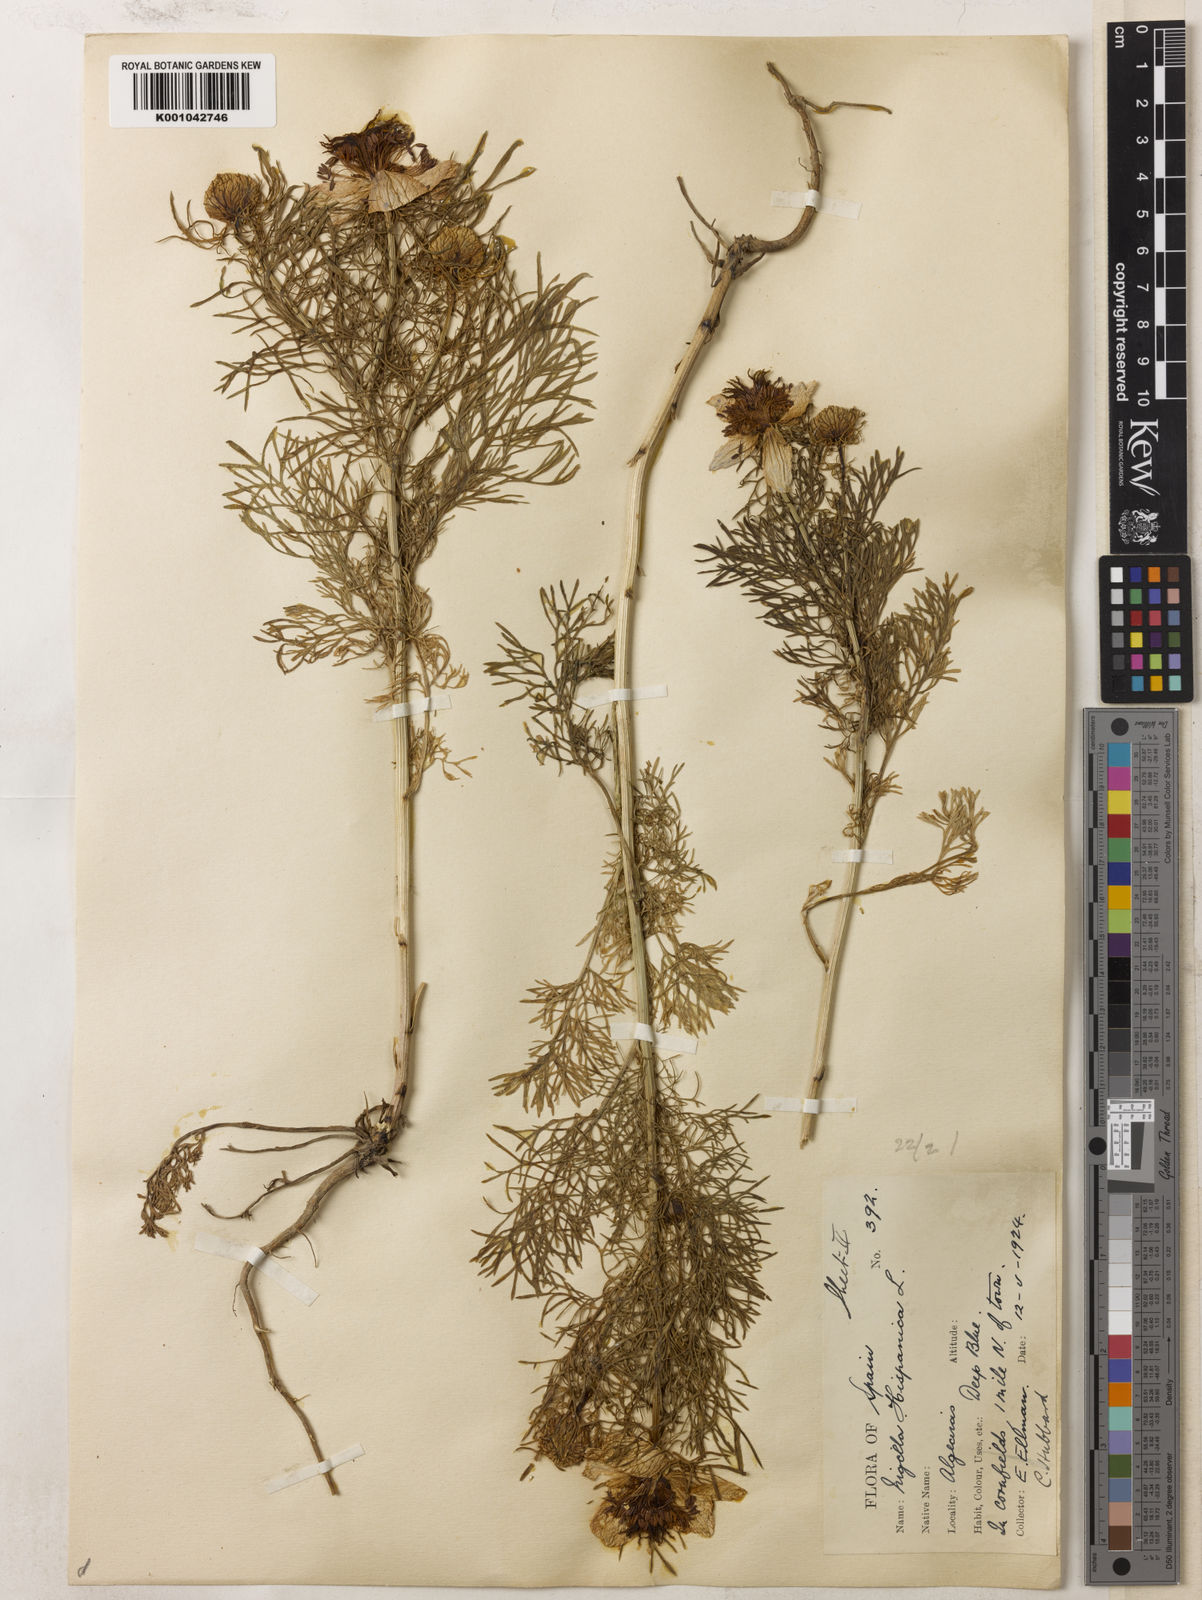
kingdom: Plantae
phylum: Tracheophyta
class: Magnoliopsida
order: Ranunculales
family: Ranunculaceae
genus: Nigella
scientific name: Nigella hispanica
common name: Fennel-flower
